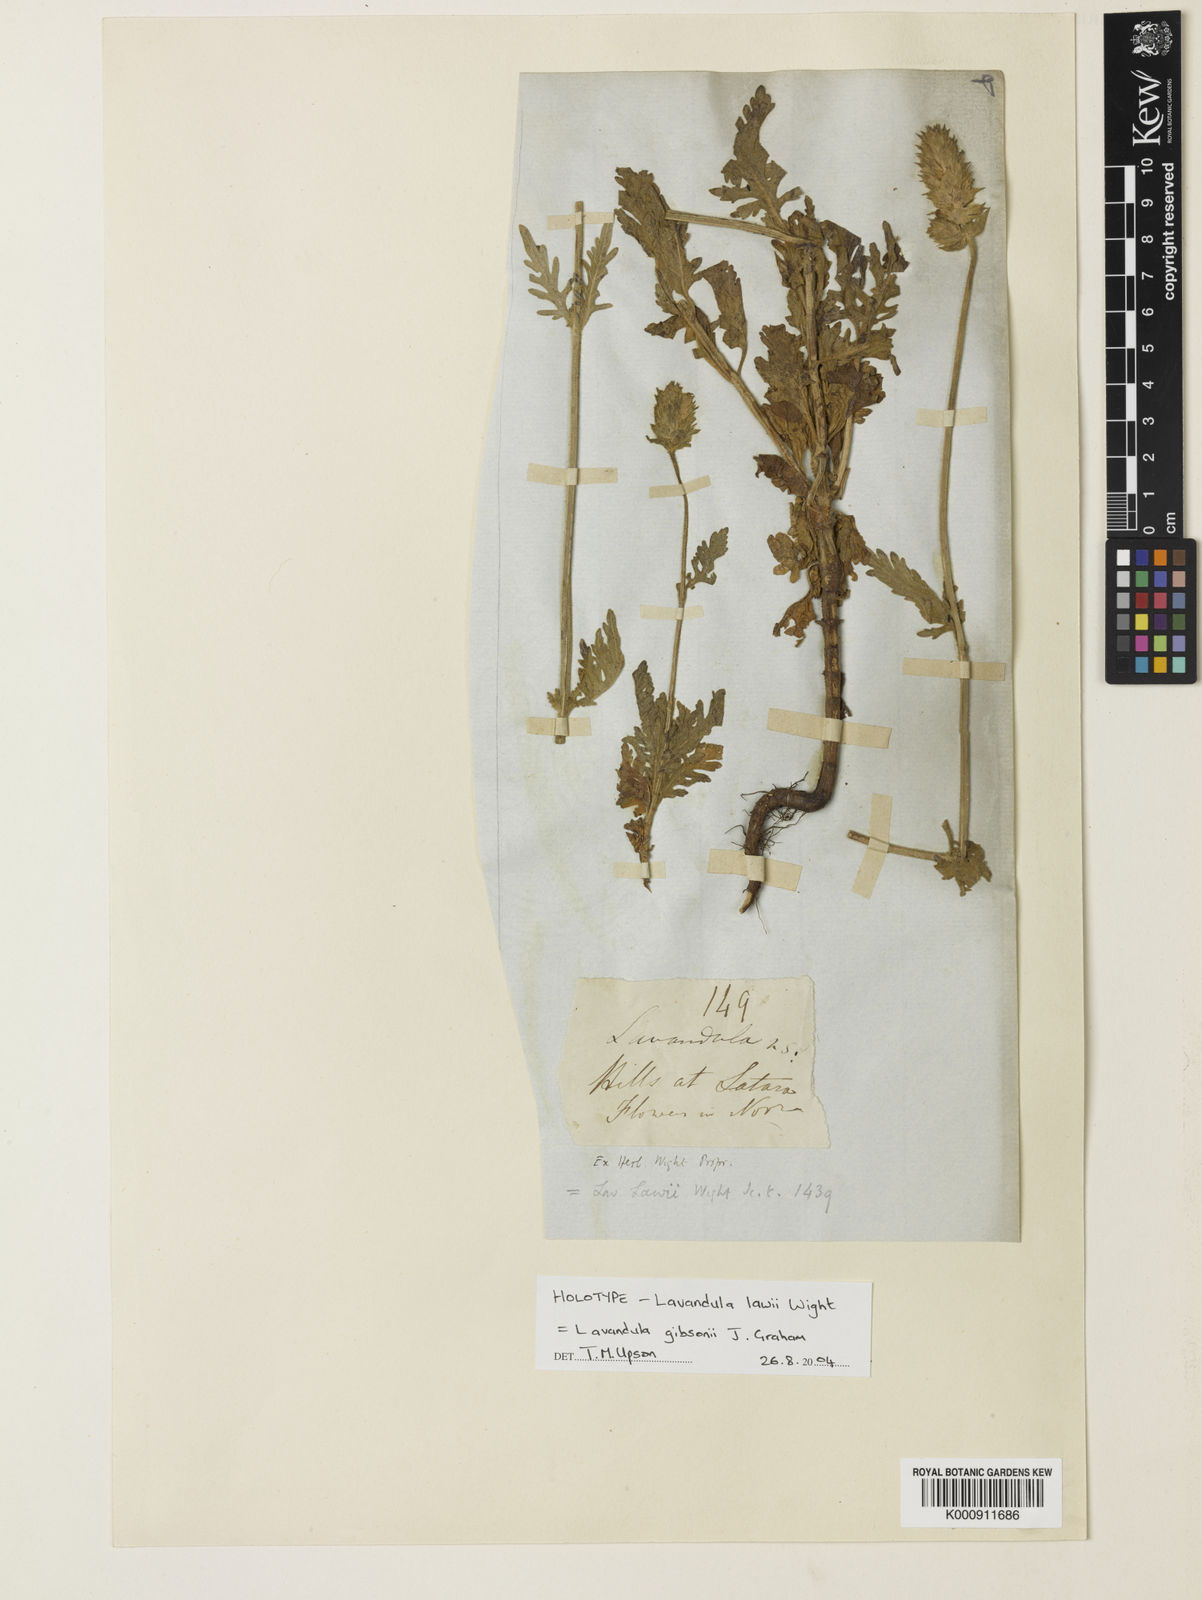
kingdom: Plantae
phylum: Tracheophyta
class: Magnoliopsida
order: Lamiales
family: Lamiaceae
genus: Lavandula
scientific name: Lavandula gibsonii
